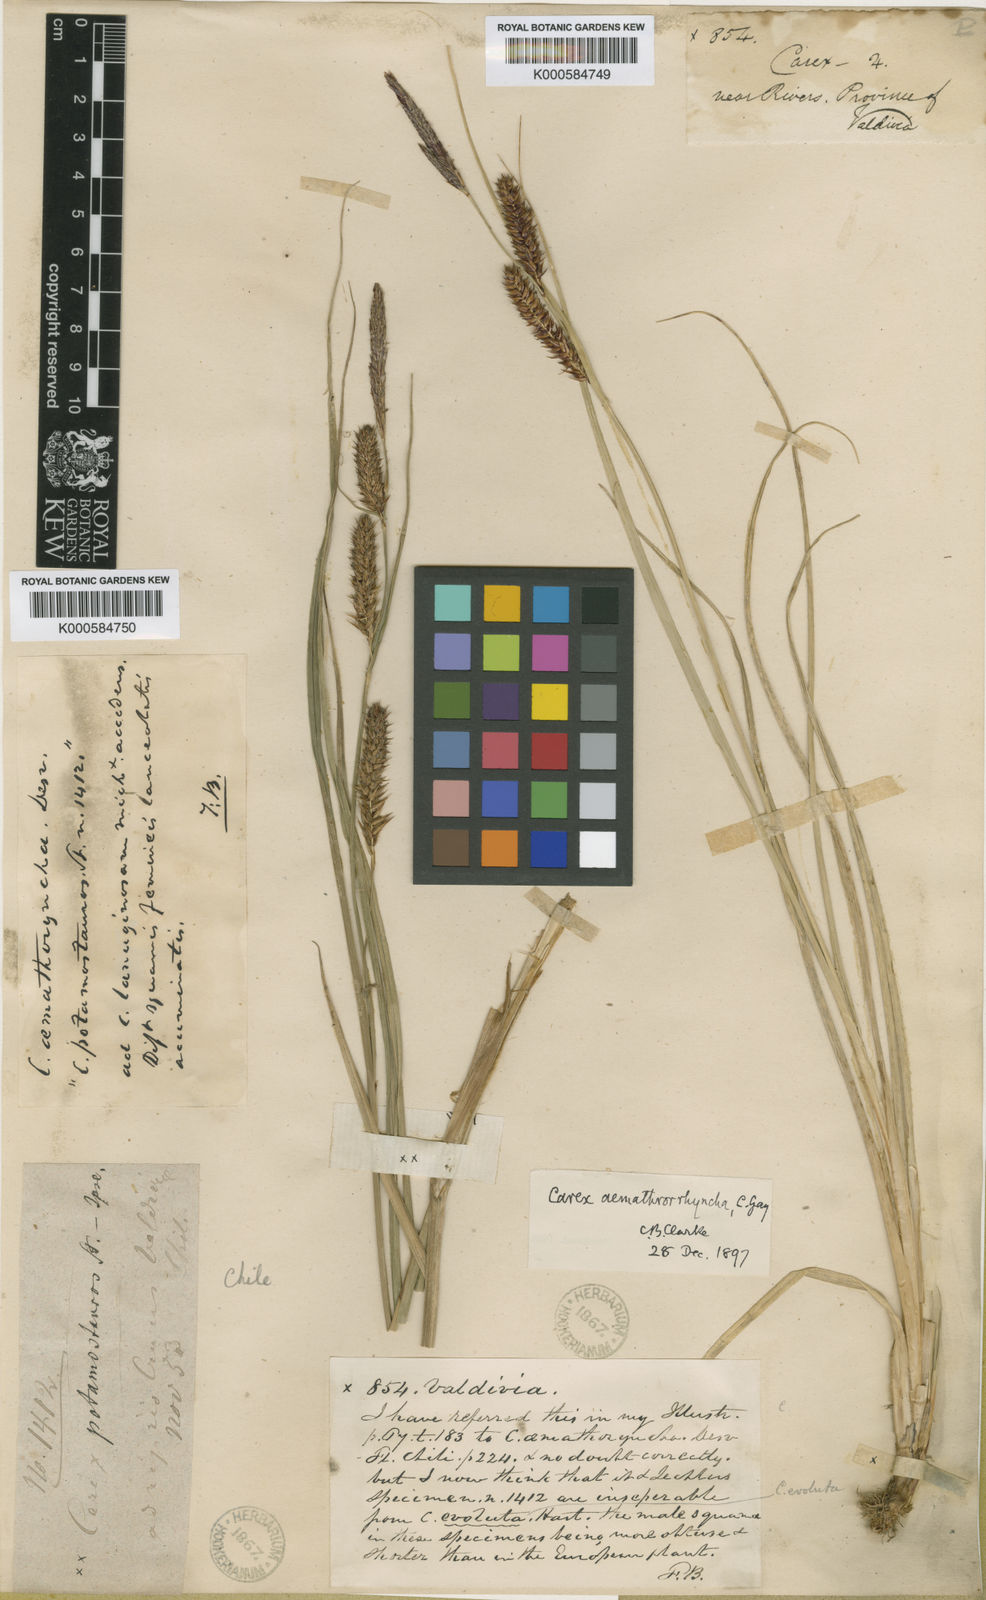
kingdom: Plantae
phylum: Tracheophyta
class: Liliopsida
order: Poales
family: Cyperaceae
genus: Carex
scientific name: Carex
